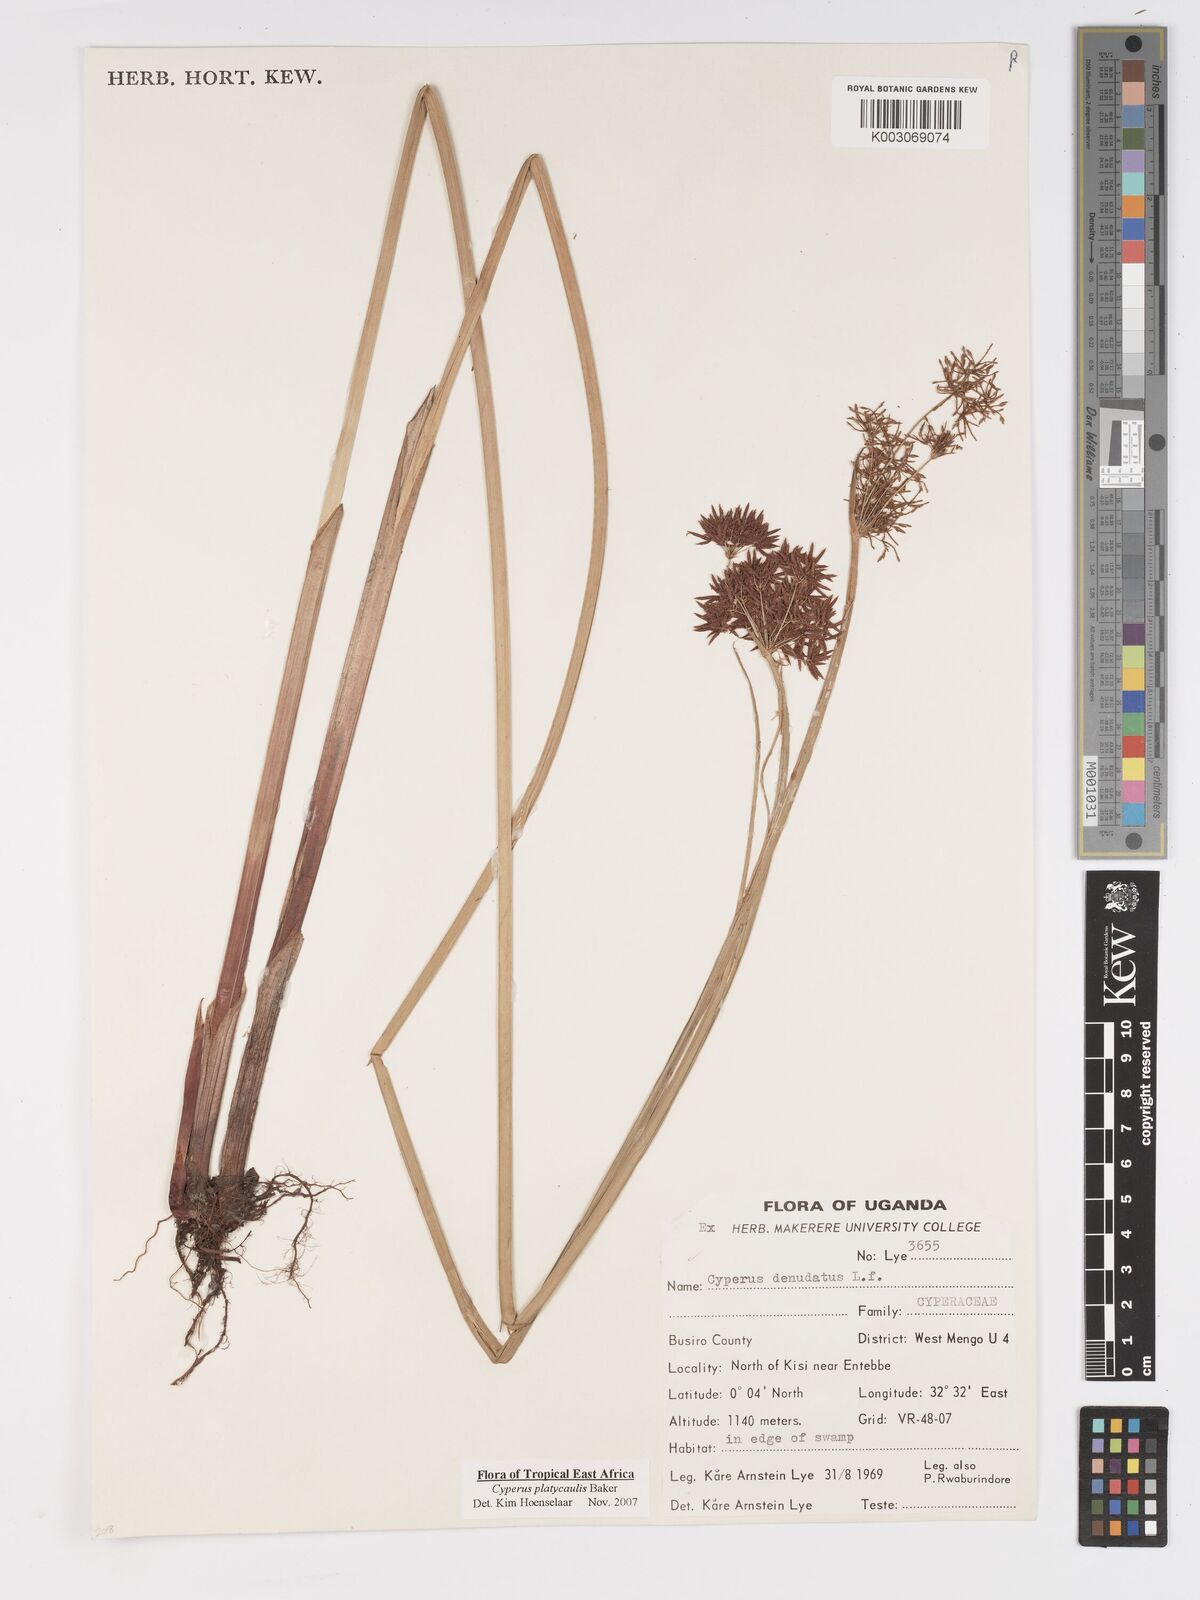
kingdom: Plantae
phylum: Tracheophyta
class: Liliopsida
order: Poales
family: Cyperaceae
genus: Cyperus
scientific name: Cyperus platycaulis
